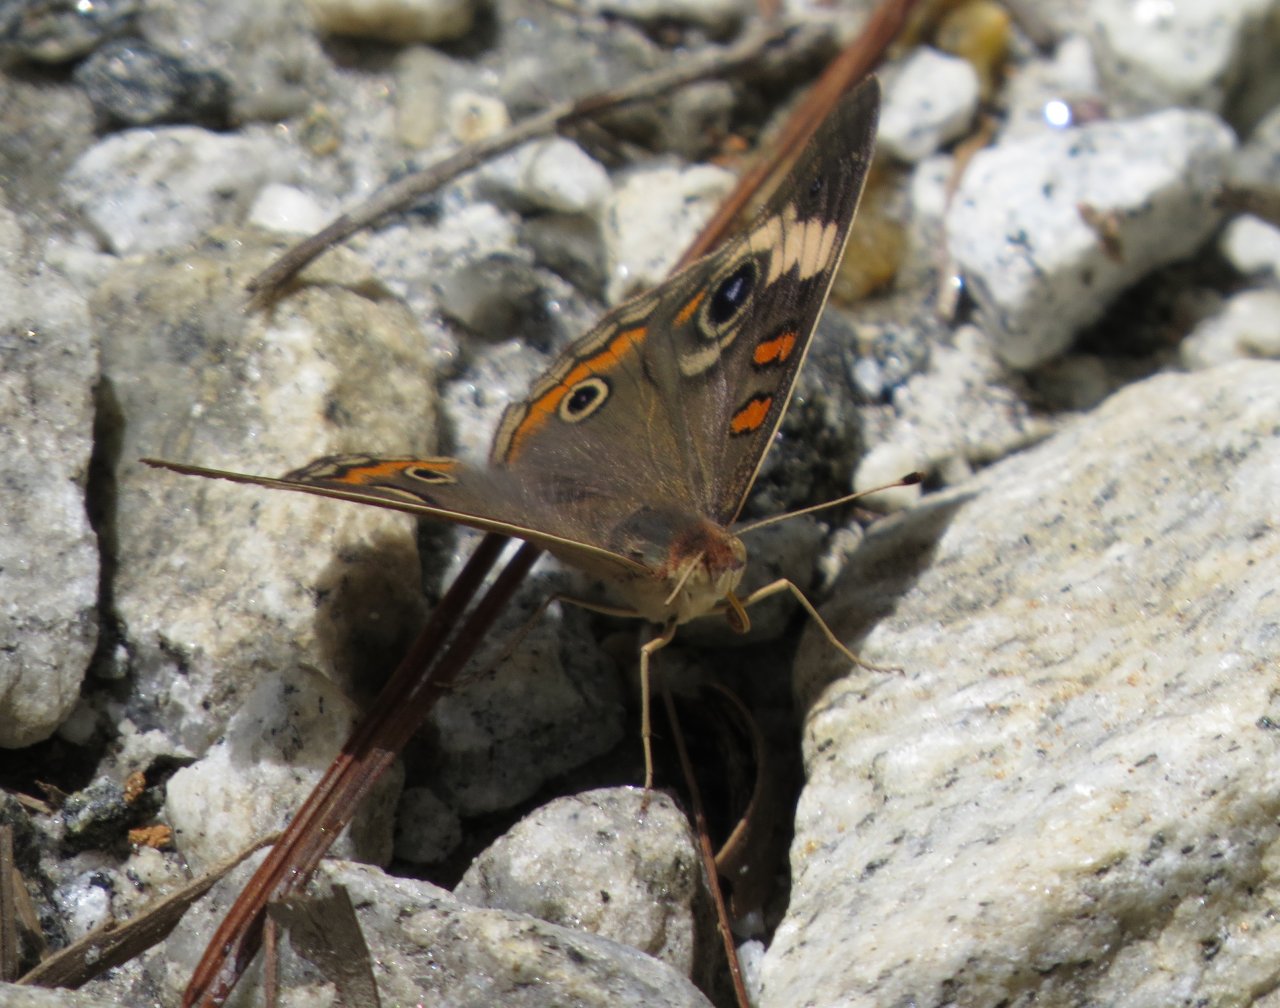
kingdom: Animalia
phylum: Arthropoda
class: Insecta
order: Lepidoptera
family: Nymphalidae
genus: Junonia
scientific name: Junonia coenia
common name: Common Buckeye
